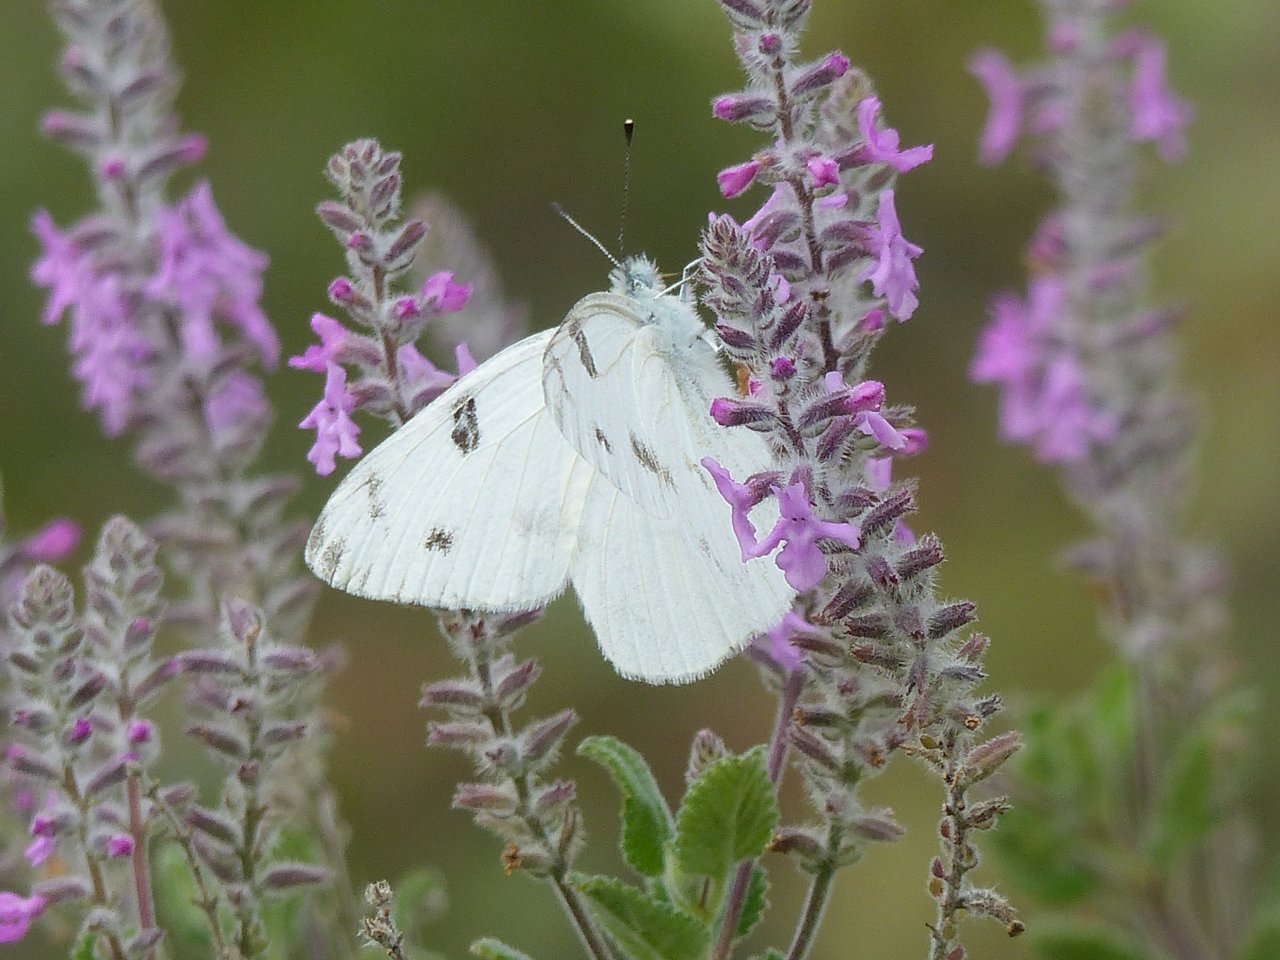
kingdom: Animalia
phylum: Arthropoda
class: Insecta
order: Lepidoptera
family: Pieridae
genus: Pontia
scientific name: Pontia protodice
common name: Checkered White
